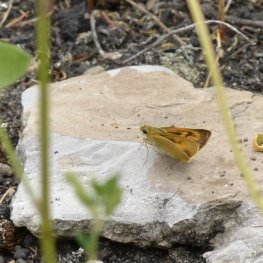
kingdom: Animalia
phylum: Arthropoda
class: Insecta
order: Lepidoptera
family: Hesperiidae
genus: Atrytone
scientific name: Atrytone delaware
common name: Delaware Skipper
